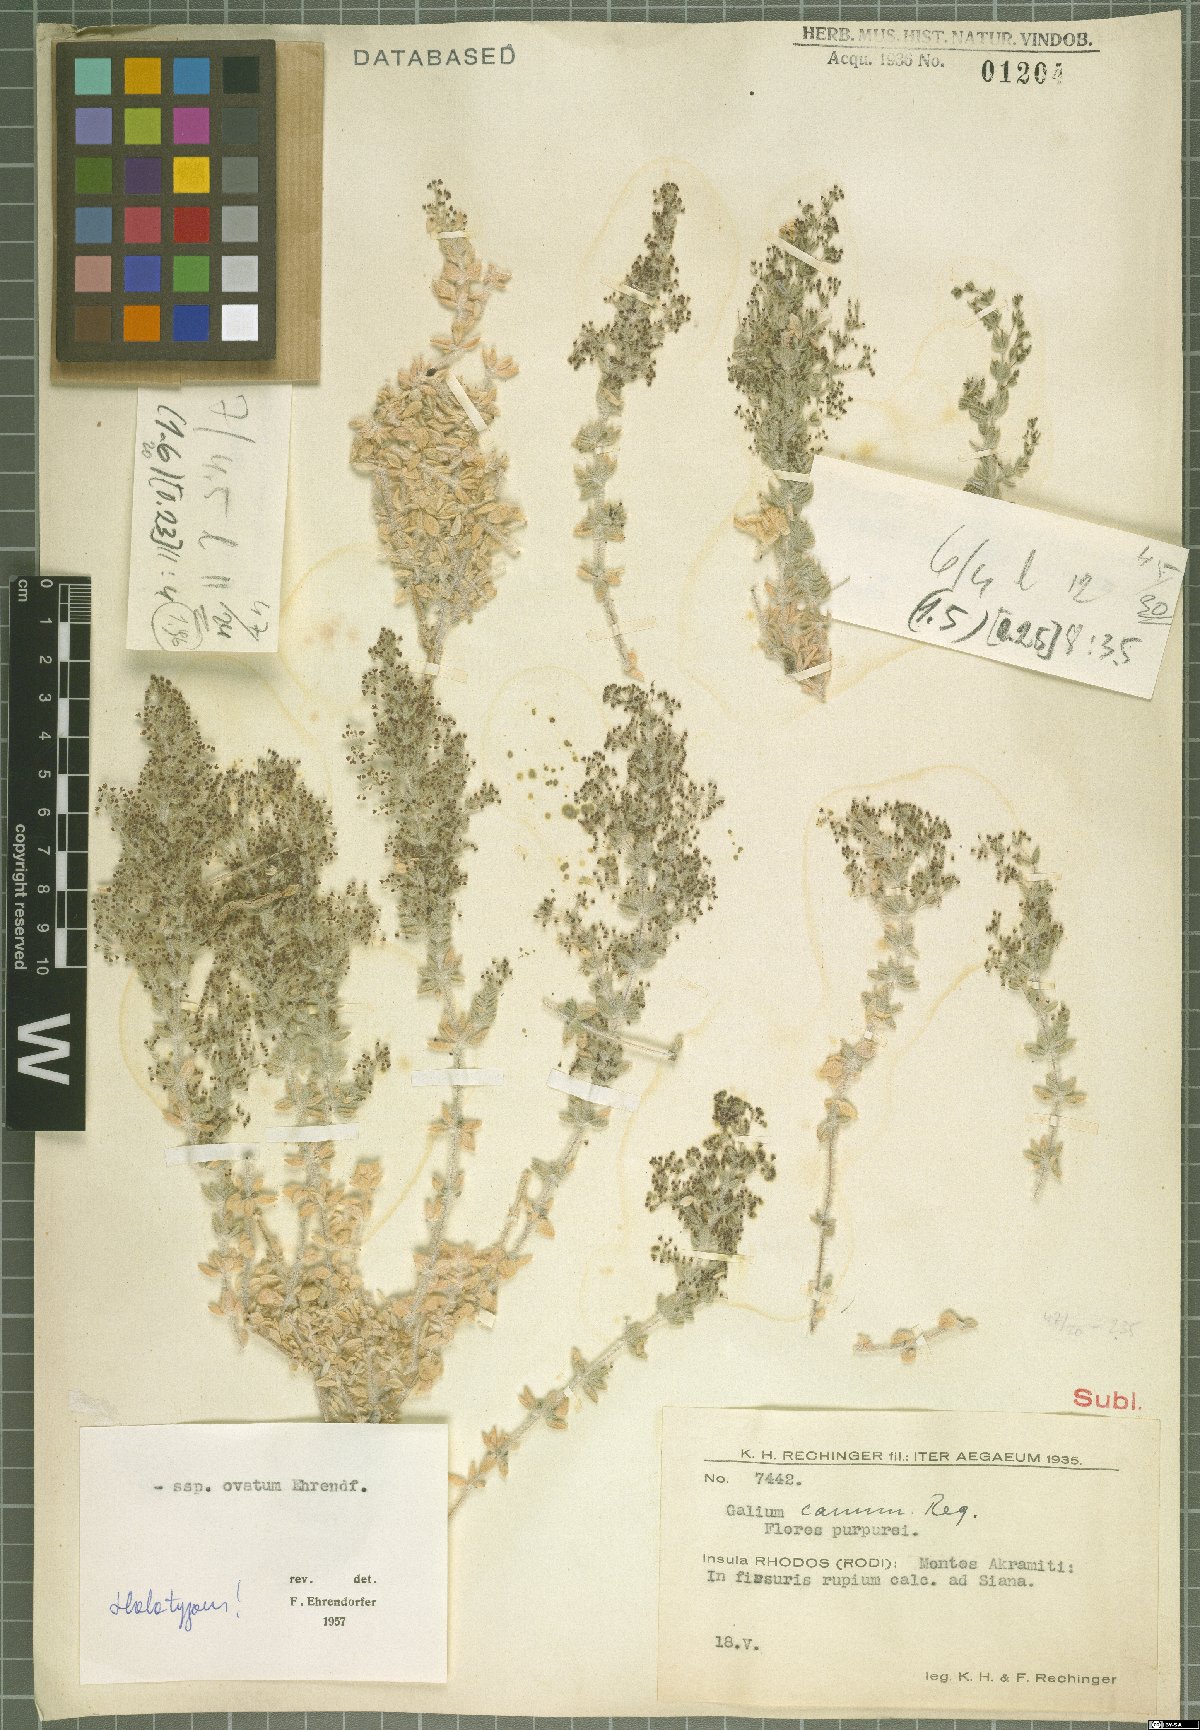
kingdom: Plantae
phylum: Tracheophyta
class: Magnoliopsida
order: Gentianales
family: Rubiaceae
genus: Galium
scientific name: Galium canum
